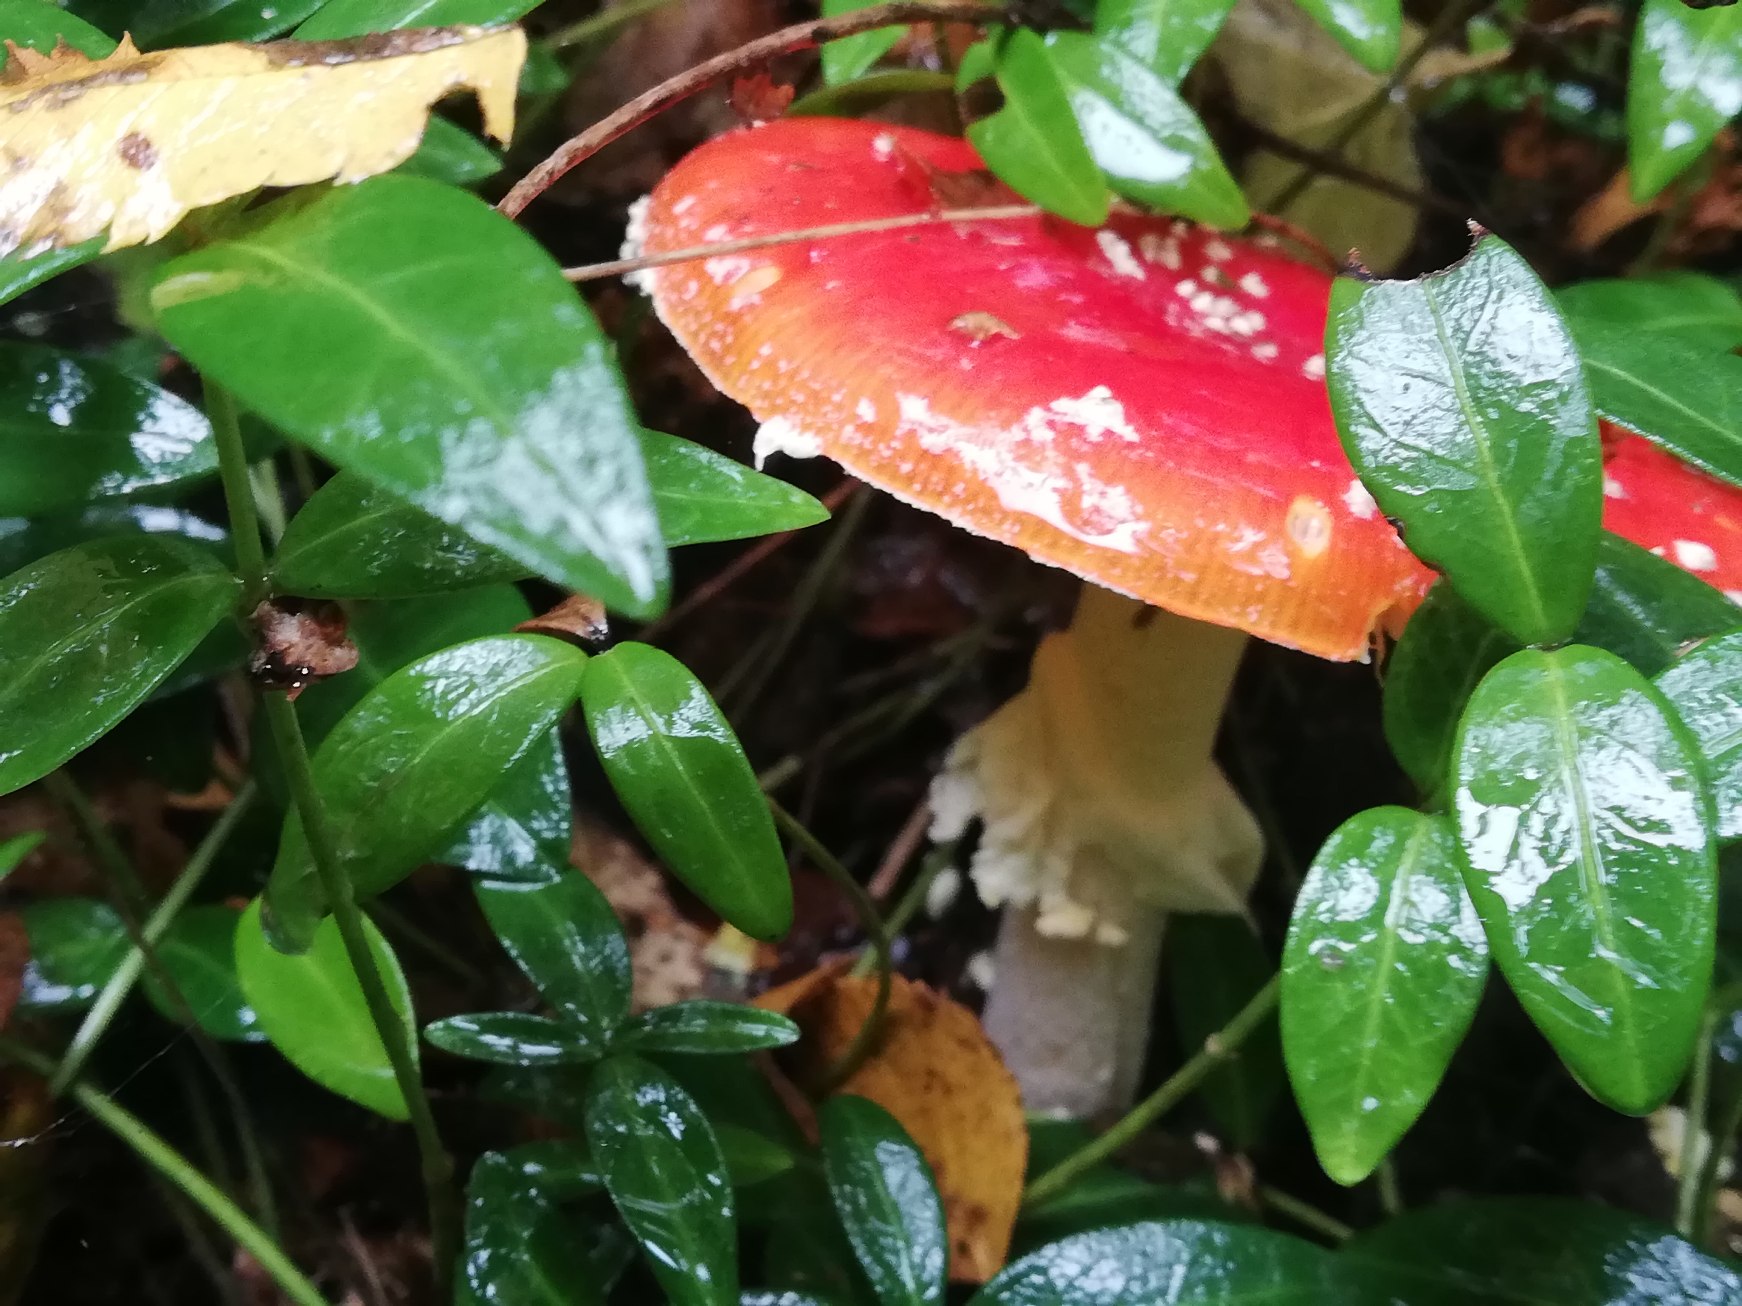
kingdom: Fungi
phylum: Basidiomycota
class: Agaricomycetes
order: Agaricales
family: Amanitaceae
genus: Amanita
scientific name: Amanita muscaria
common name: Rød fluesvamp
